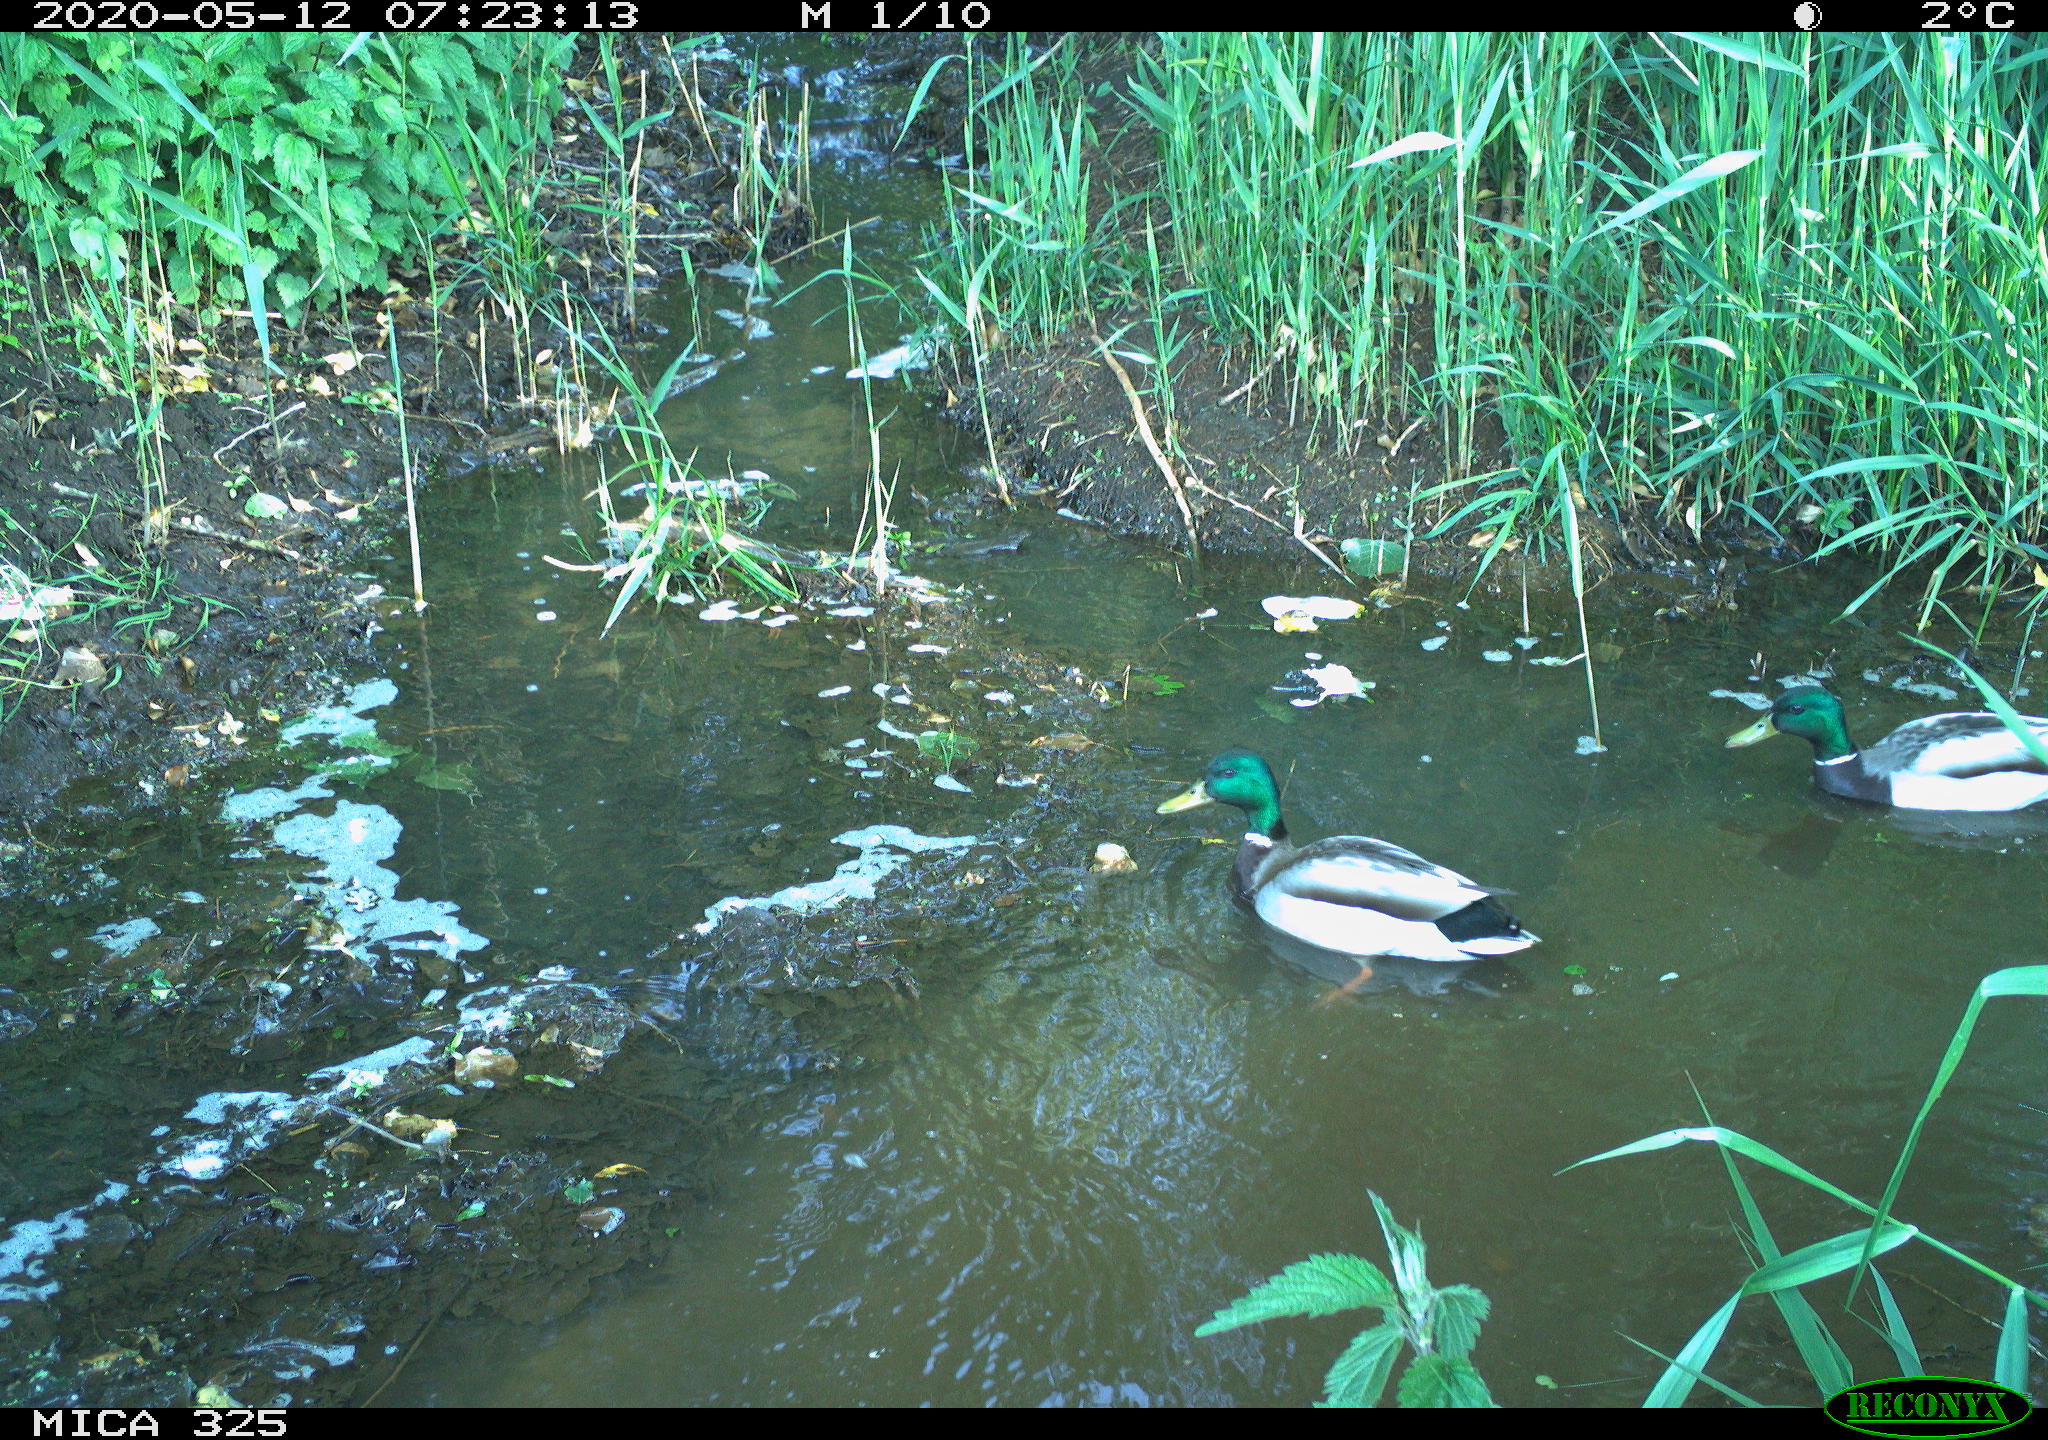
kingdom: Animalia
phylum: Chordata
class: Aves
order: Anseriformes
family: Anatidae
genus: Anas
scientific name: Anas platyrhynchos
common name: Mallard
